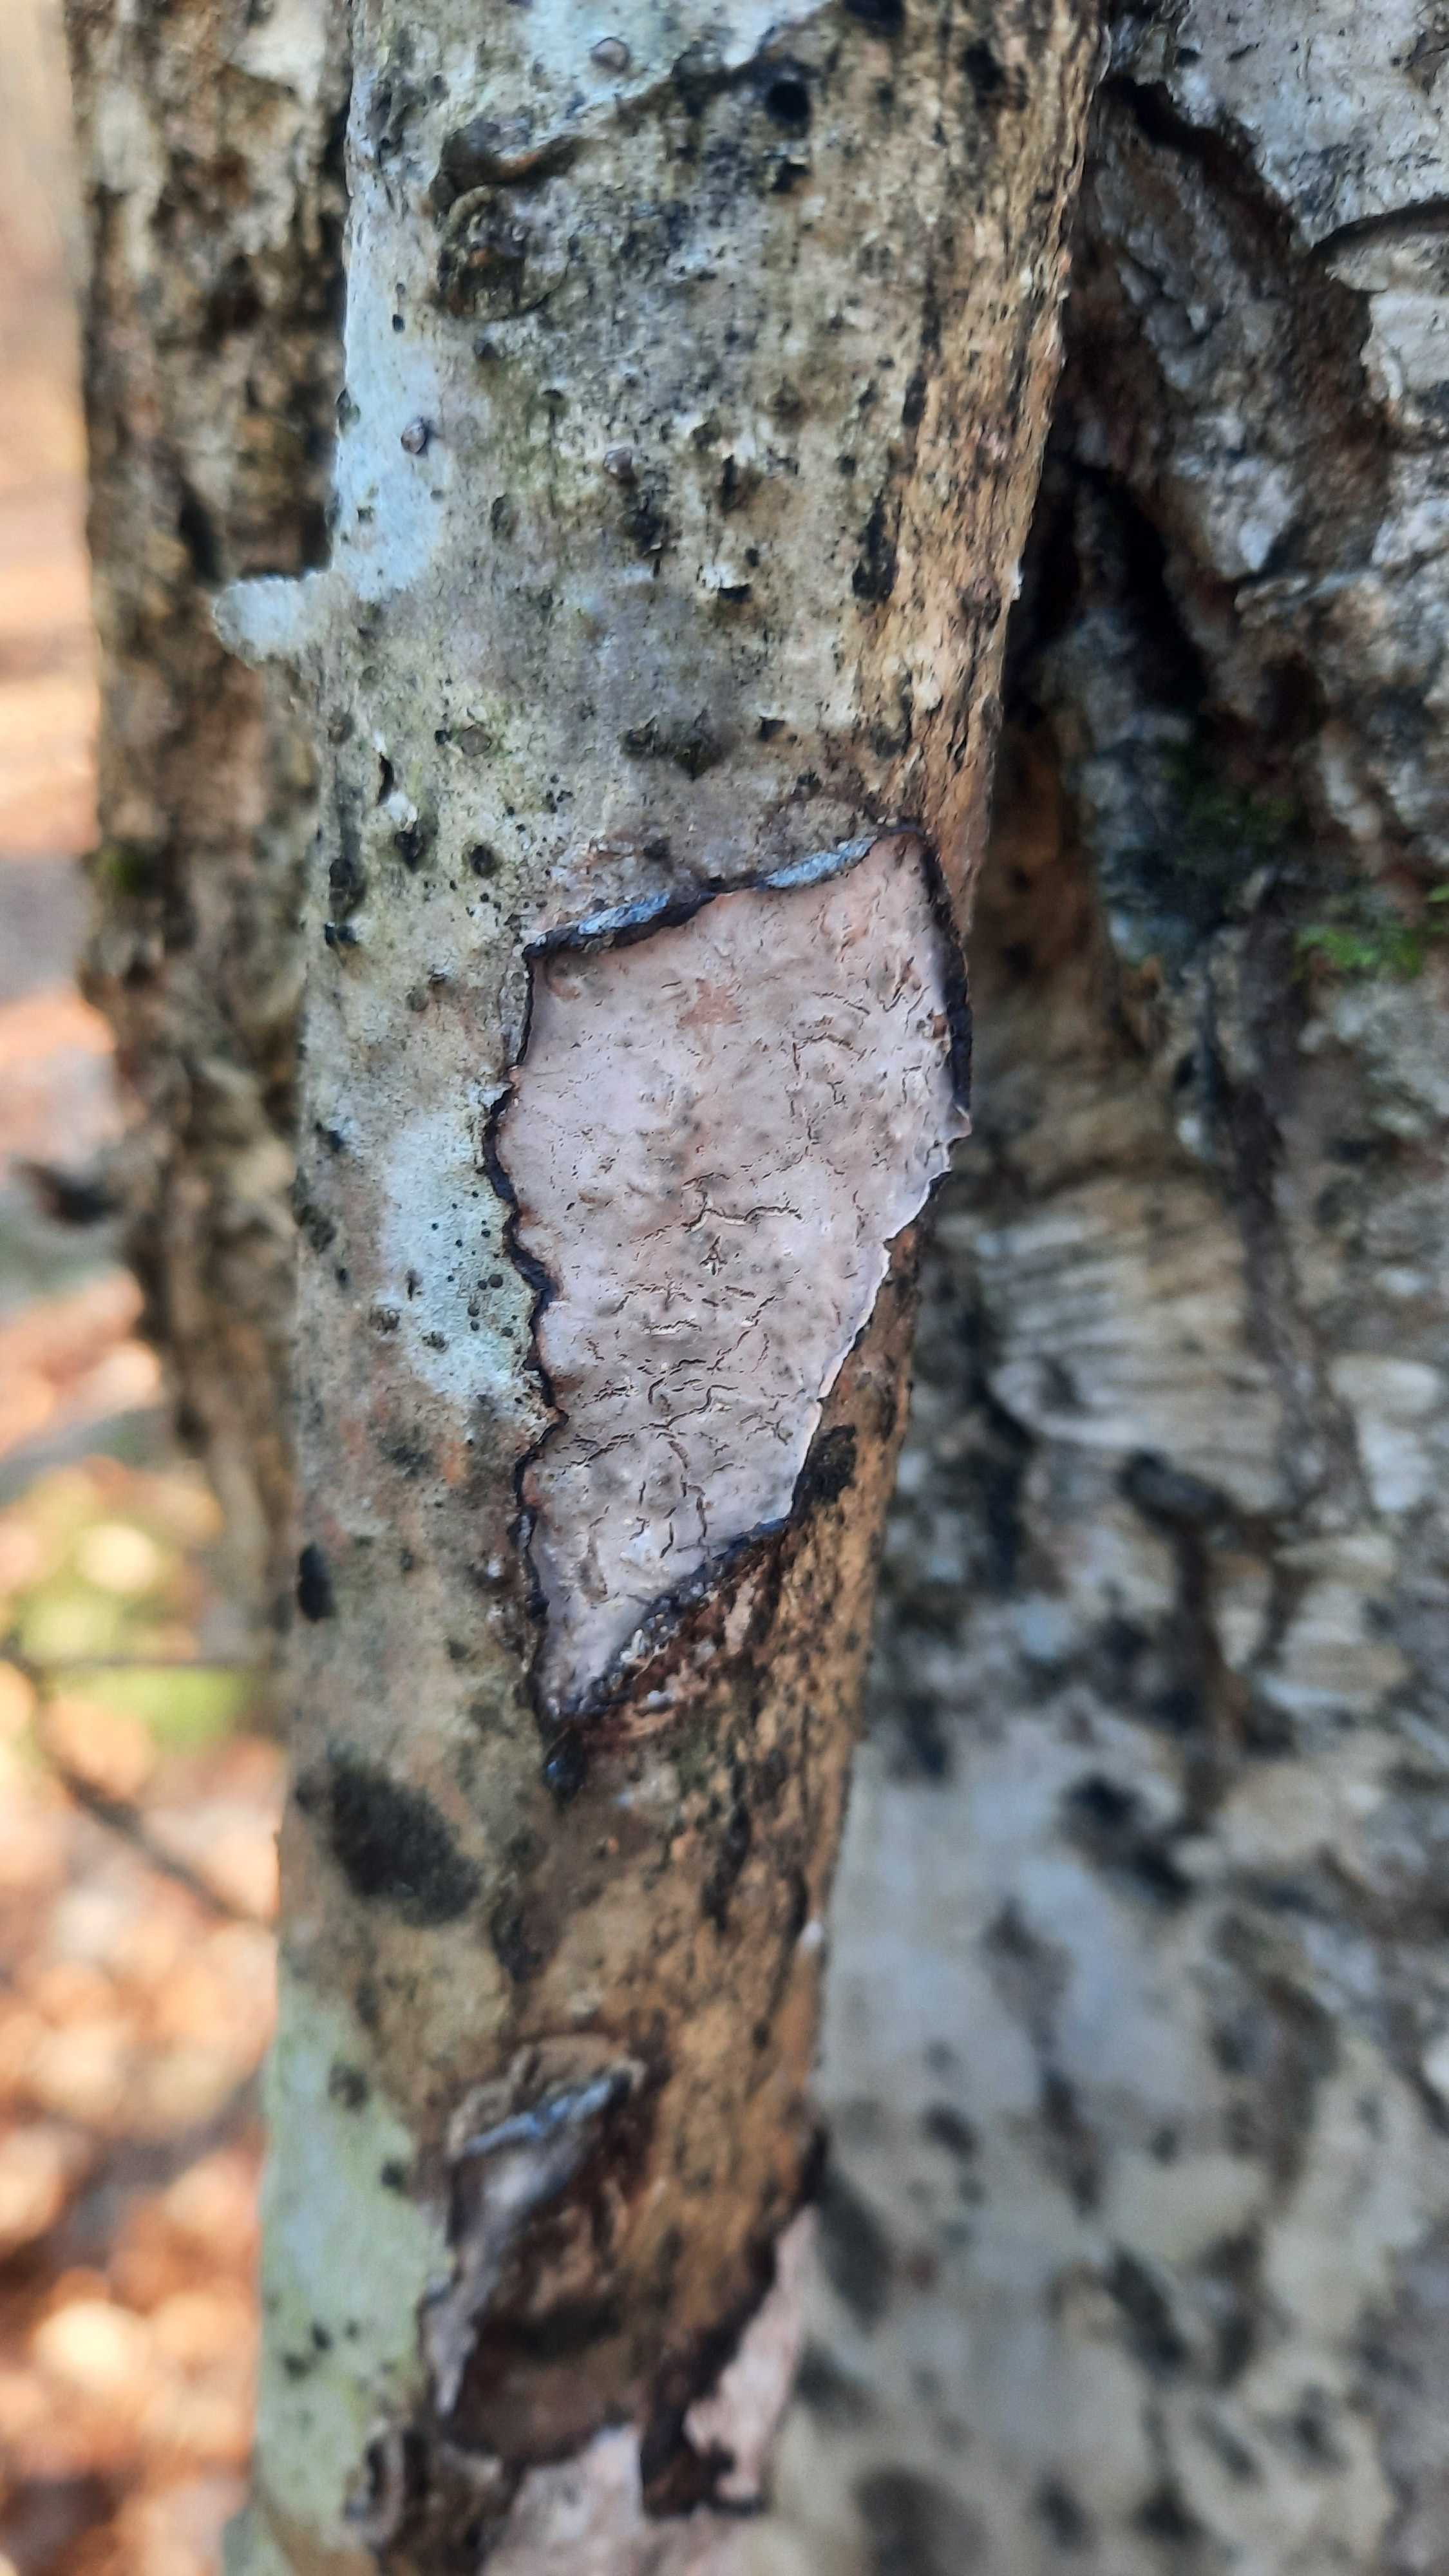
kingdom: Fungi
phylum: Basidiomycota
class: Agaricomycetes
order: Russulales
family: Peniophoraceae
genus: Peniophora
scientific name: Peniophora quercina
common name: ege-voksskind
